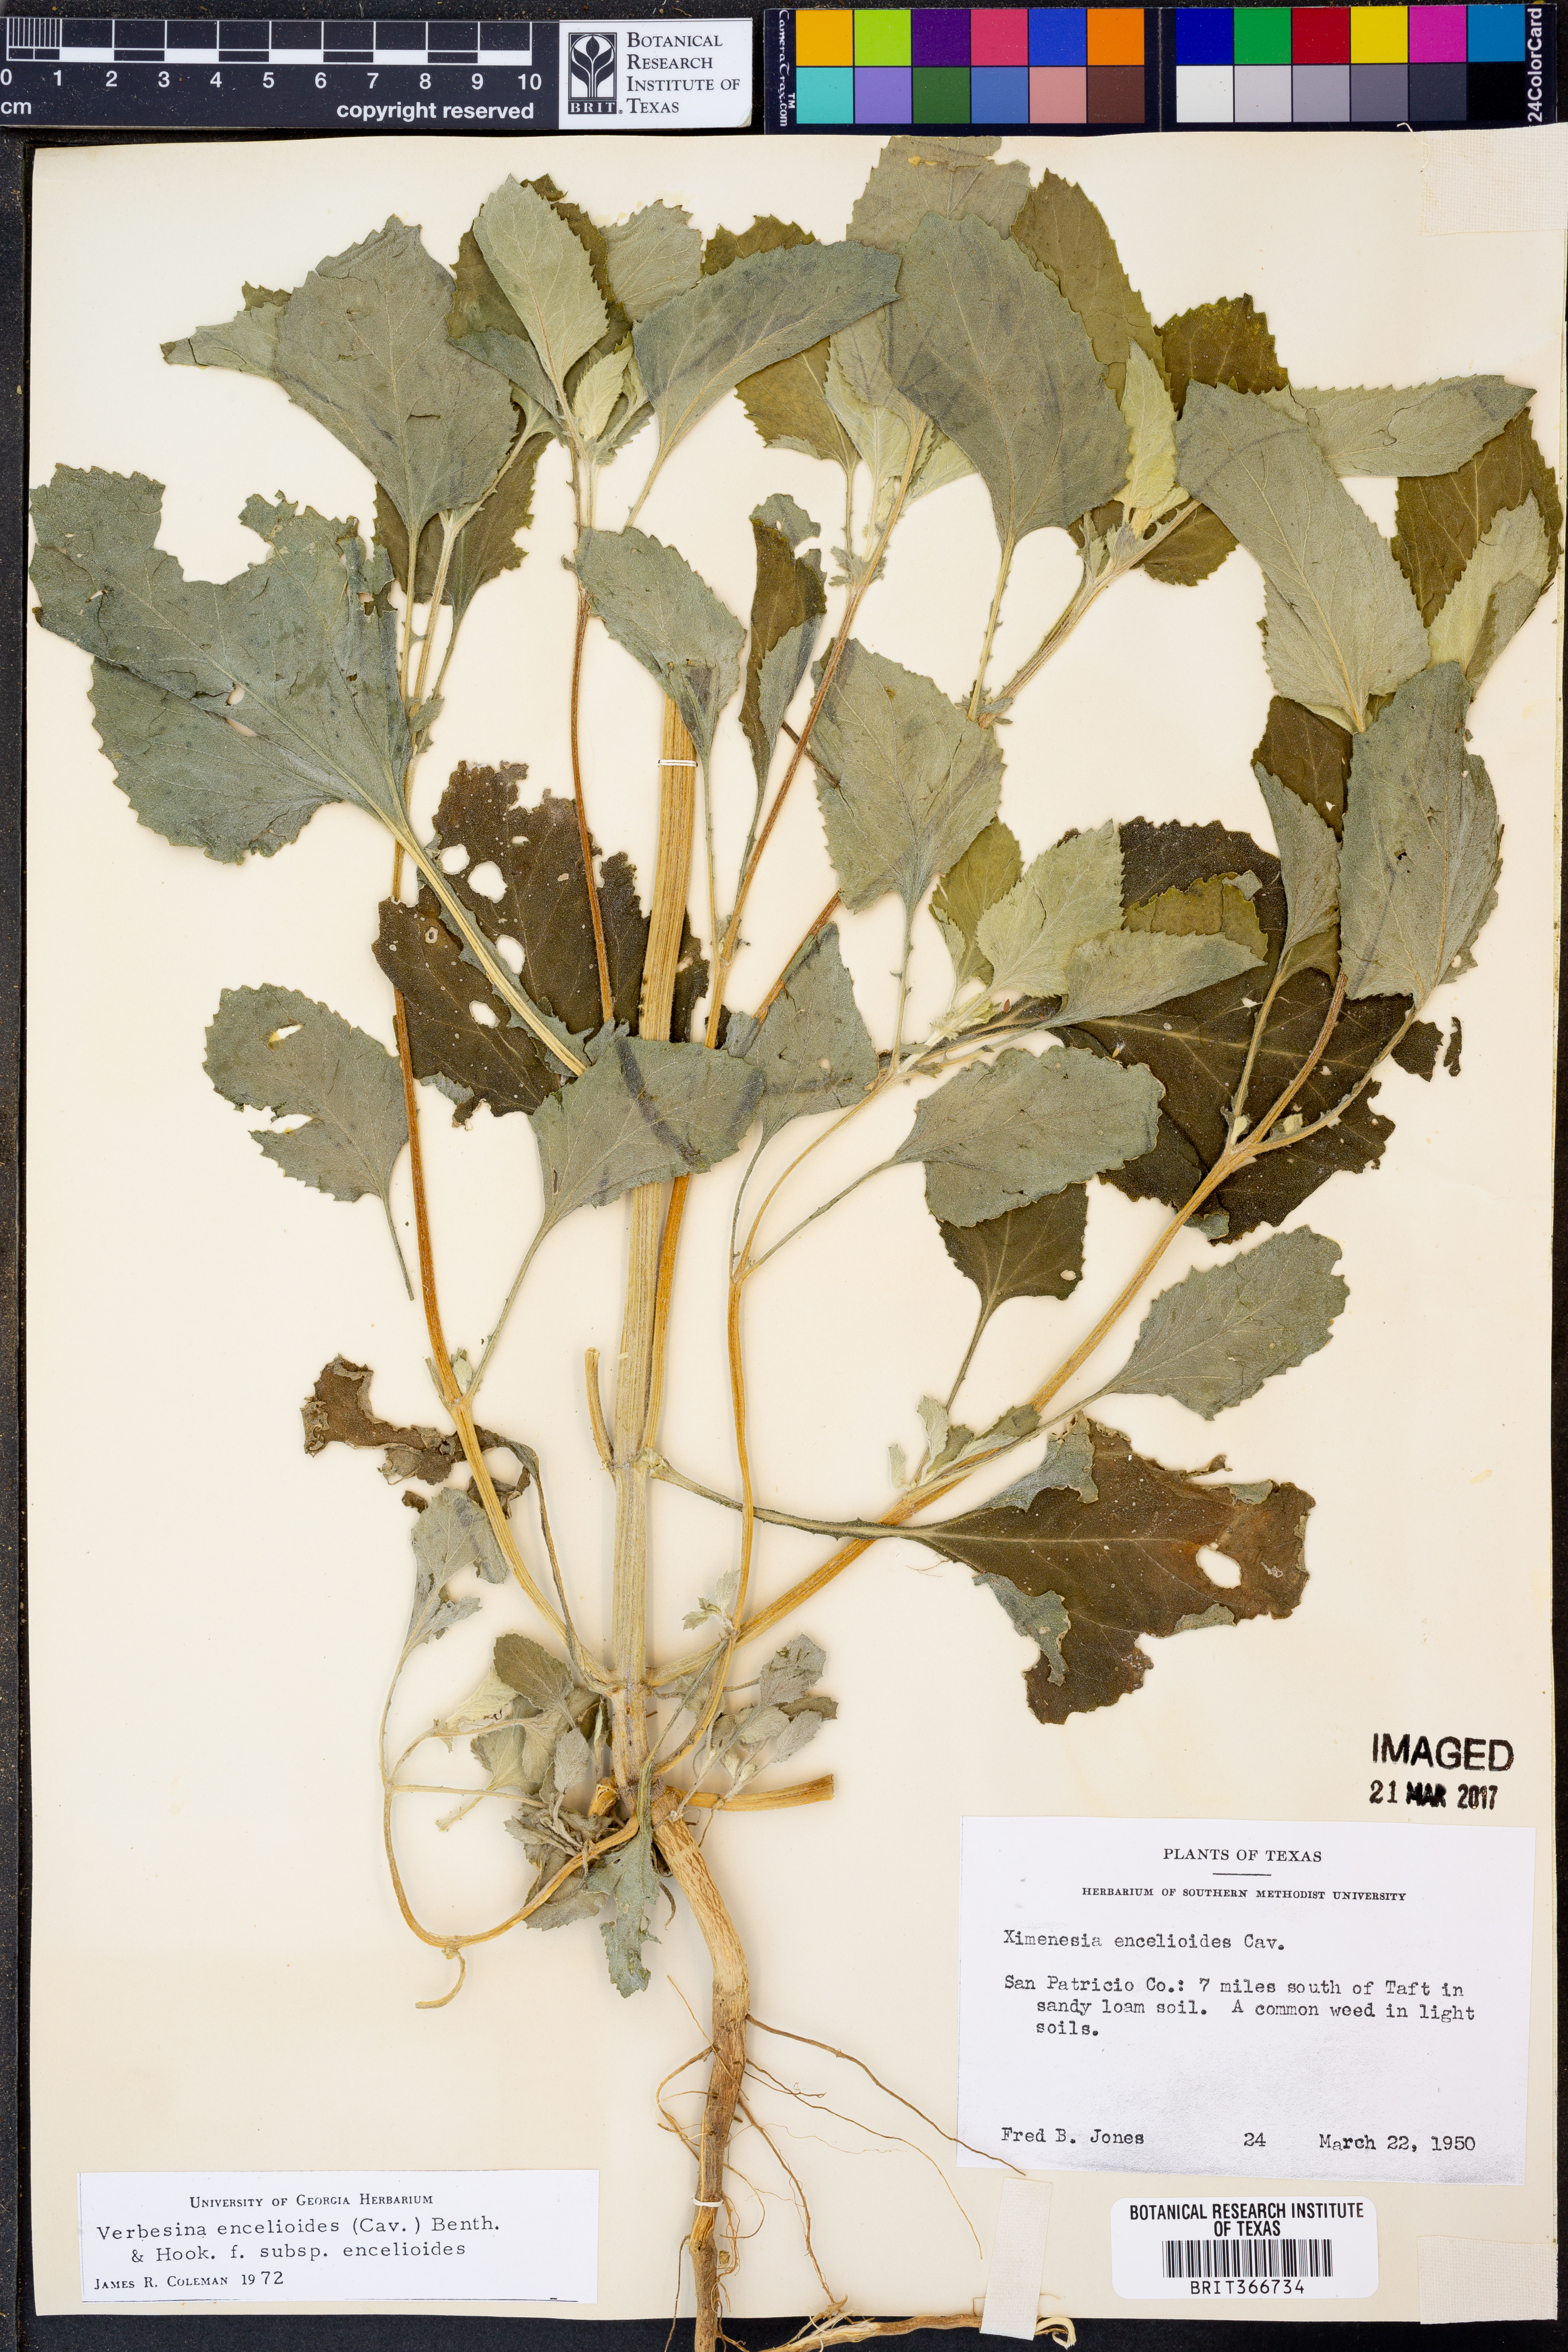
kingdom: Plantae
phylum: Tracheophyta
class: Magnoliopsida
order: Asterales
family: Asteraceae
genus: Verbesina
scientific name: Verbesina encelioides
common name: Golden crownbeard
